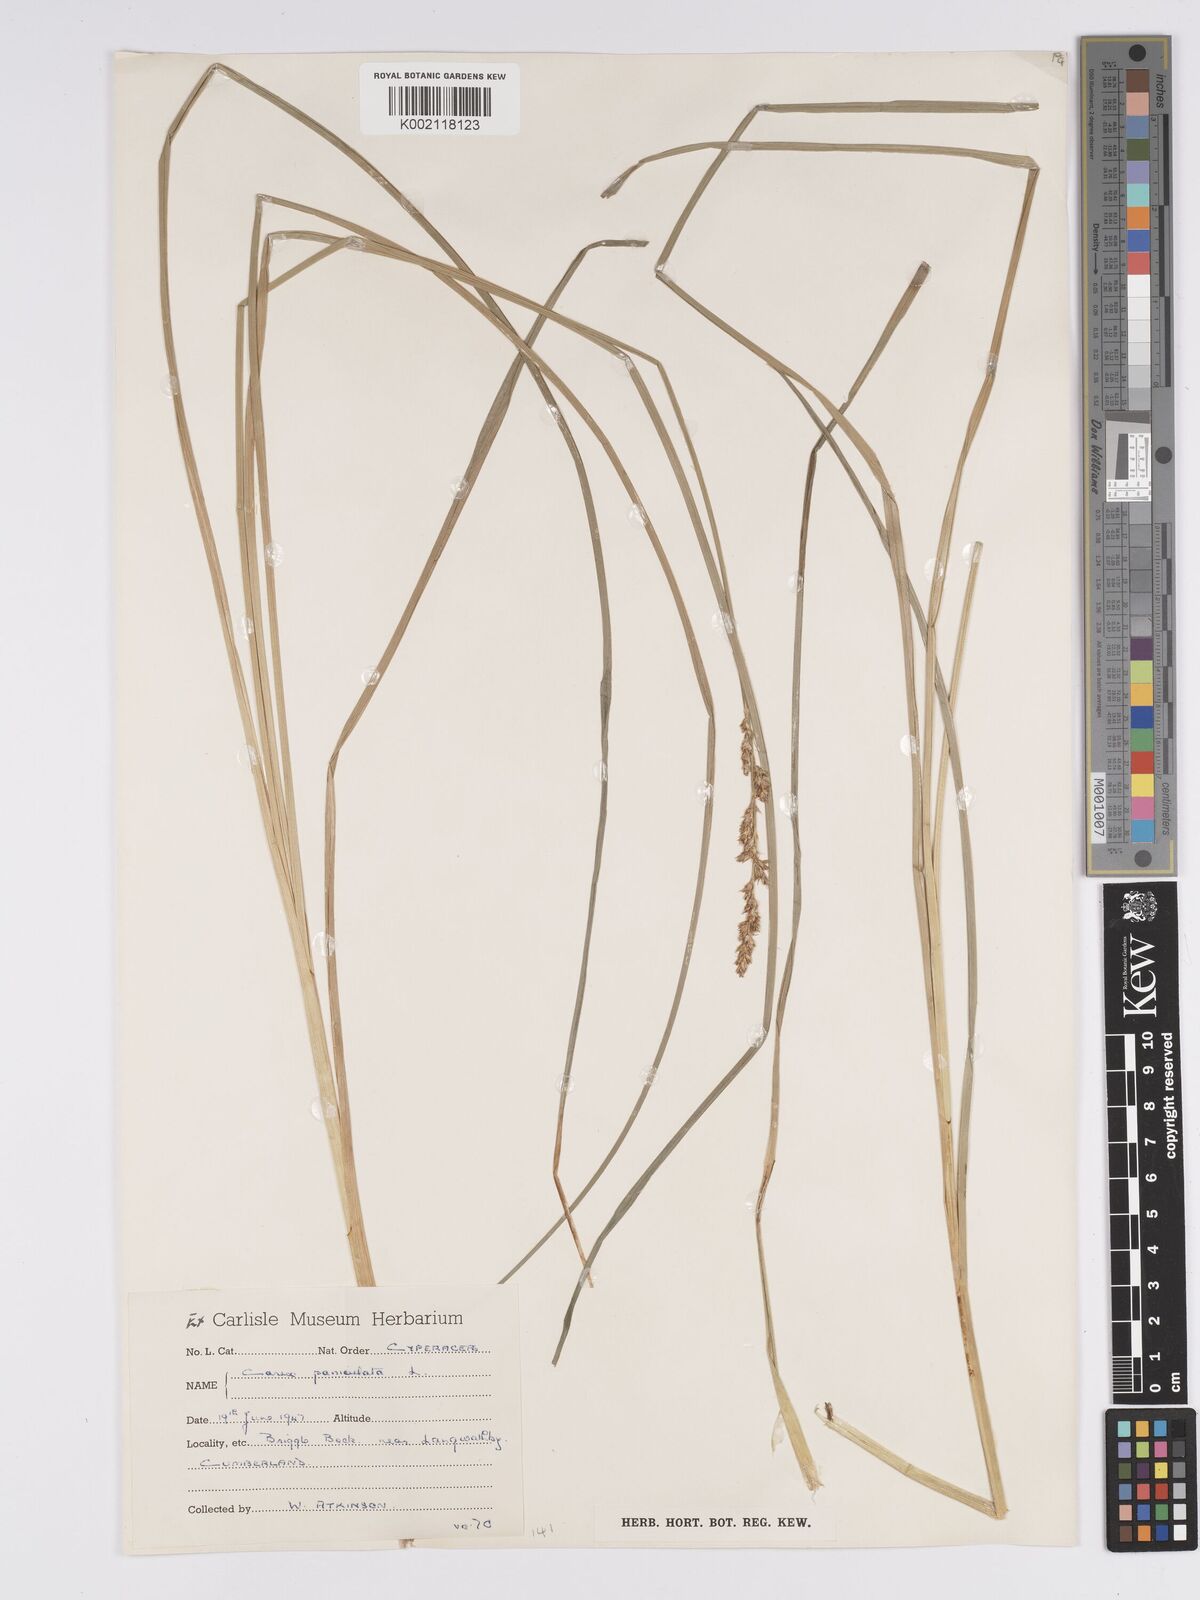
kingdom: Plantae
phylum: Tracheophyta
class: Liliopsida
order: Poales
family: Cyperaceae
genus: Carex
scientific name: Carex paniculata
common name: Greater tussock-sedge
